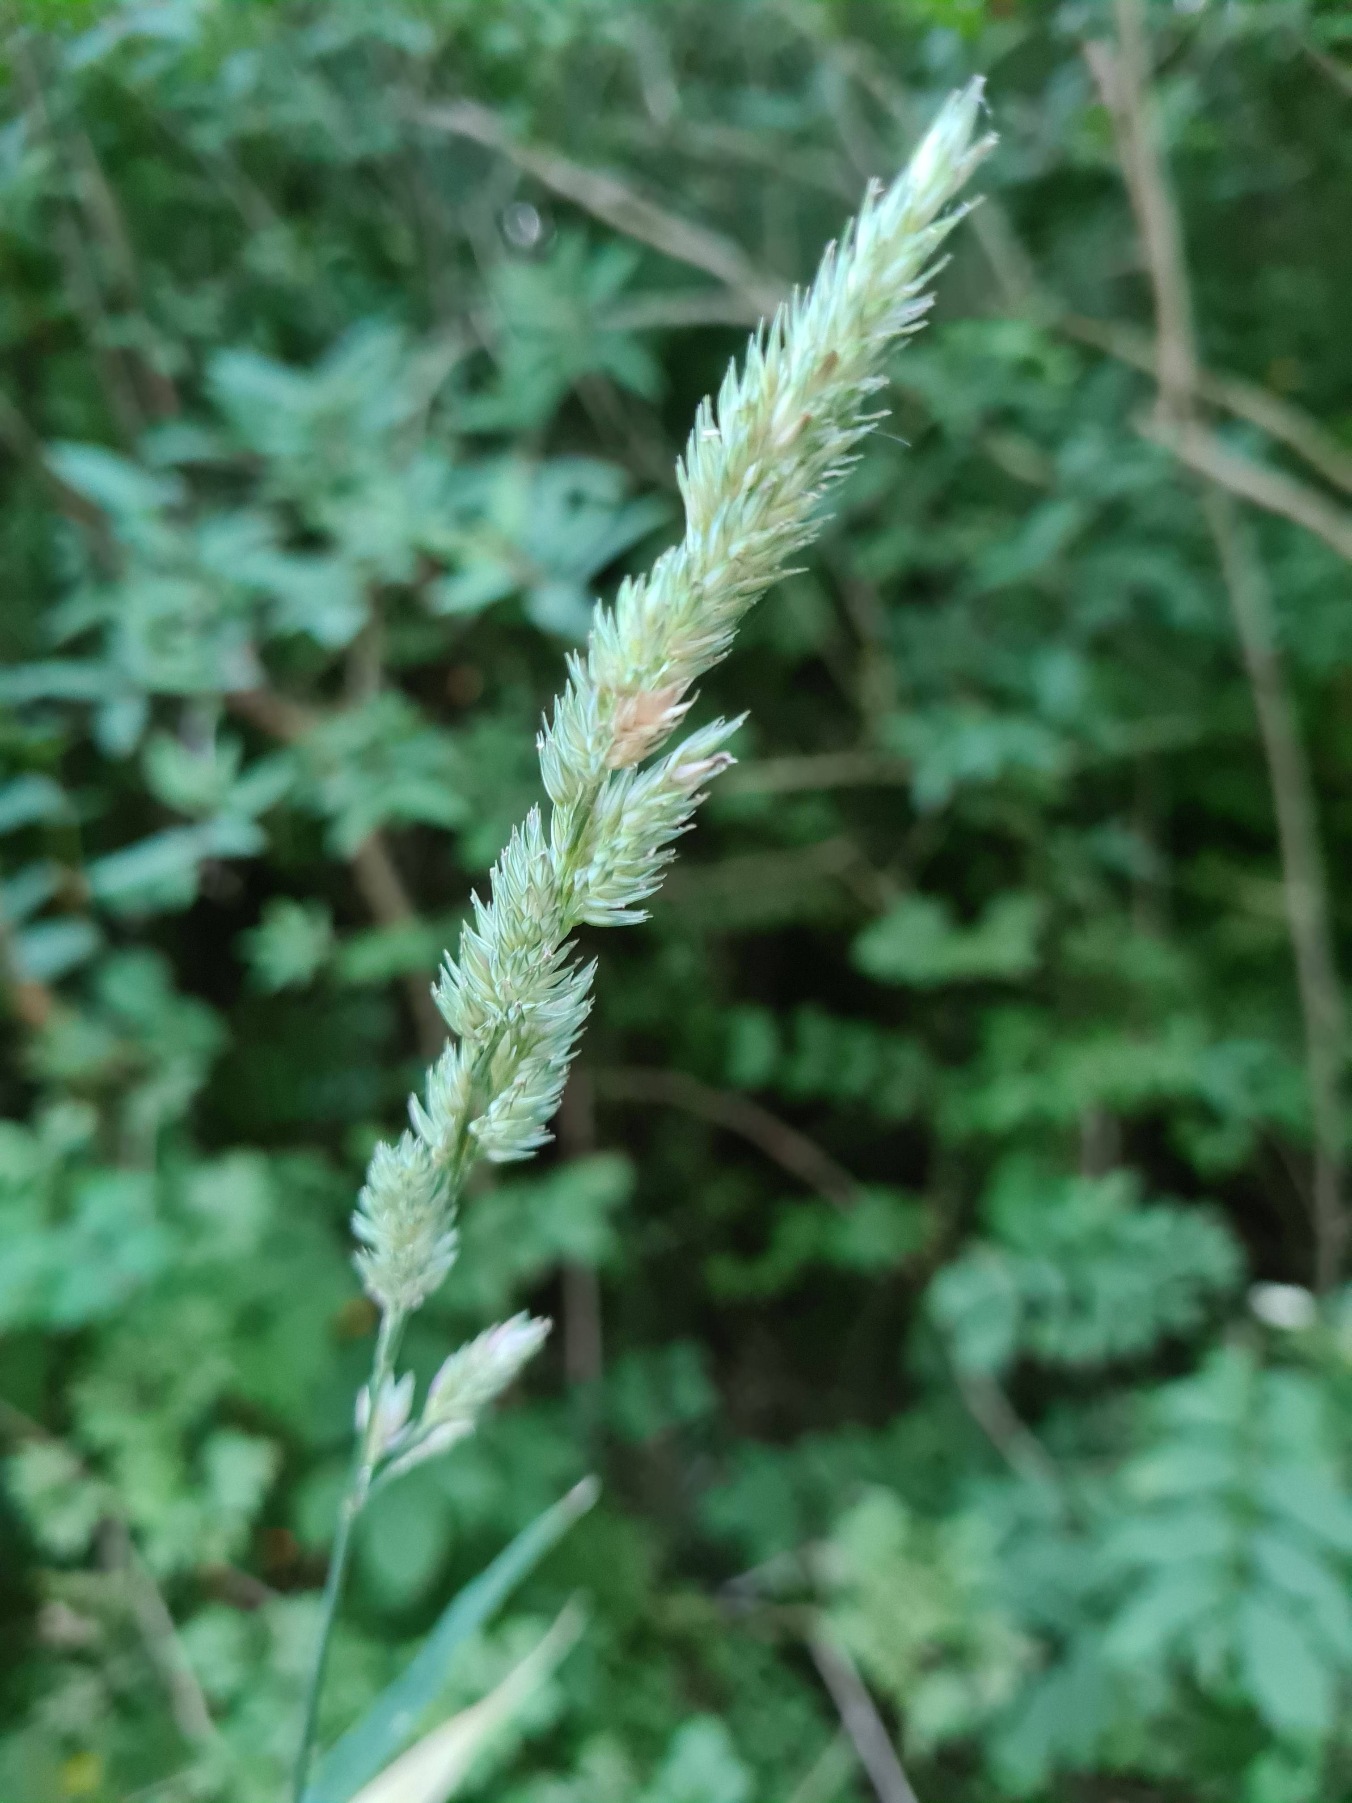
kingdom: Plantae
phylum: Tracheophyta
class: Liliopsida
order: Poales
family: Poaceae
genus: Phalaris
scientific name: Phalaris arundinacea
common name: Rørgræs
